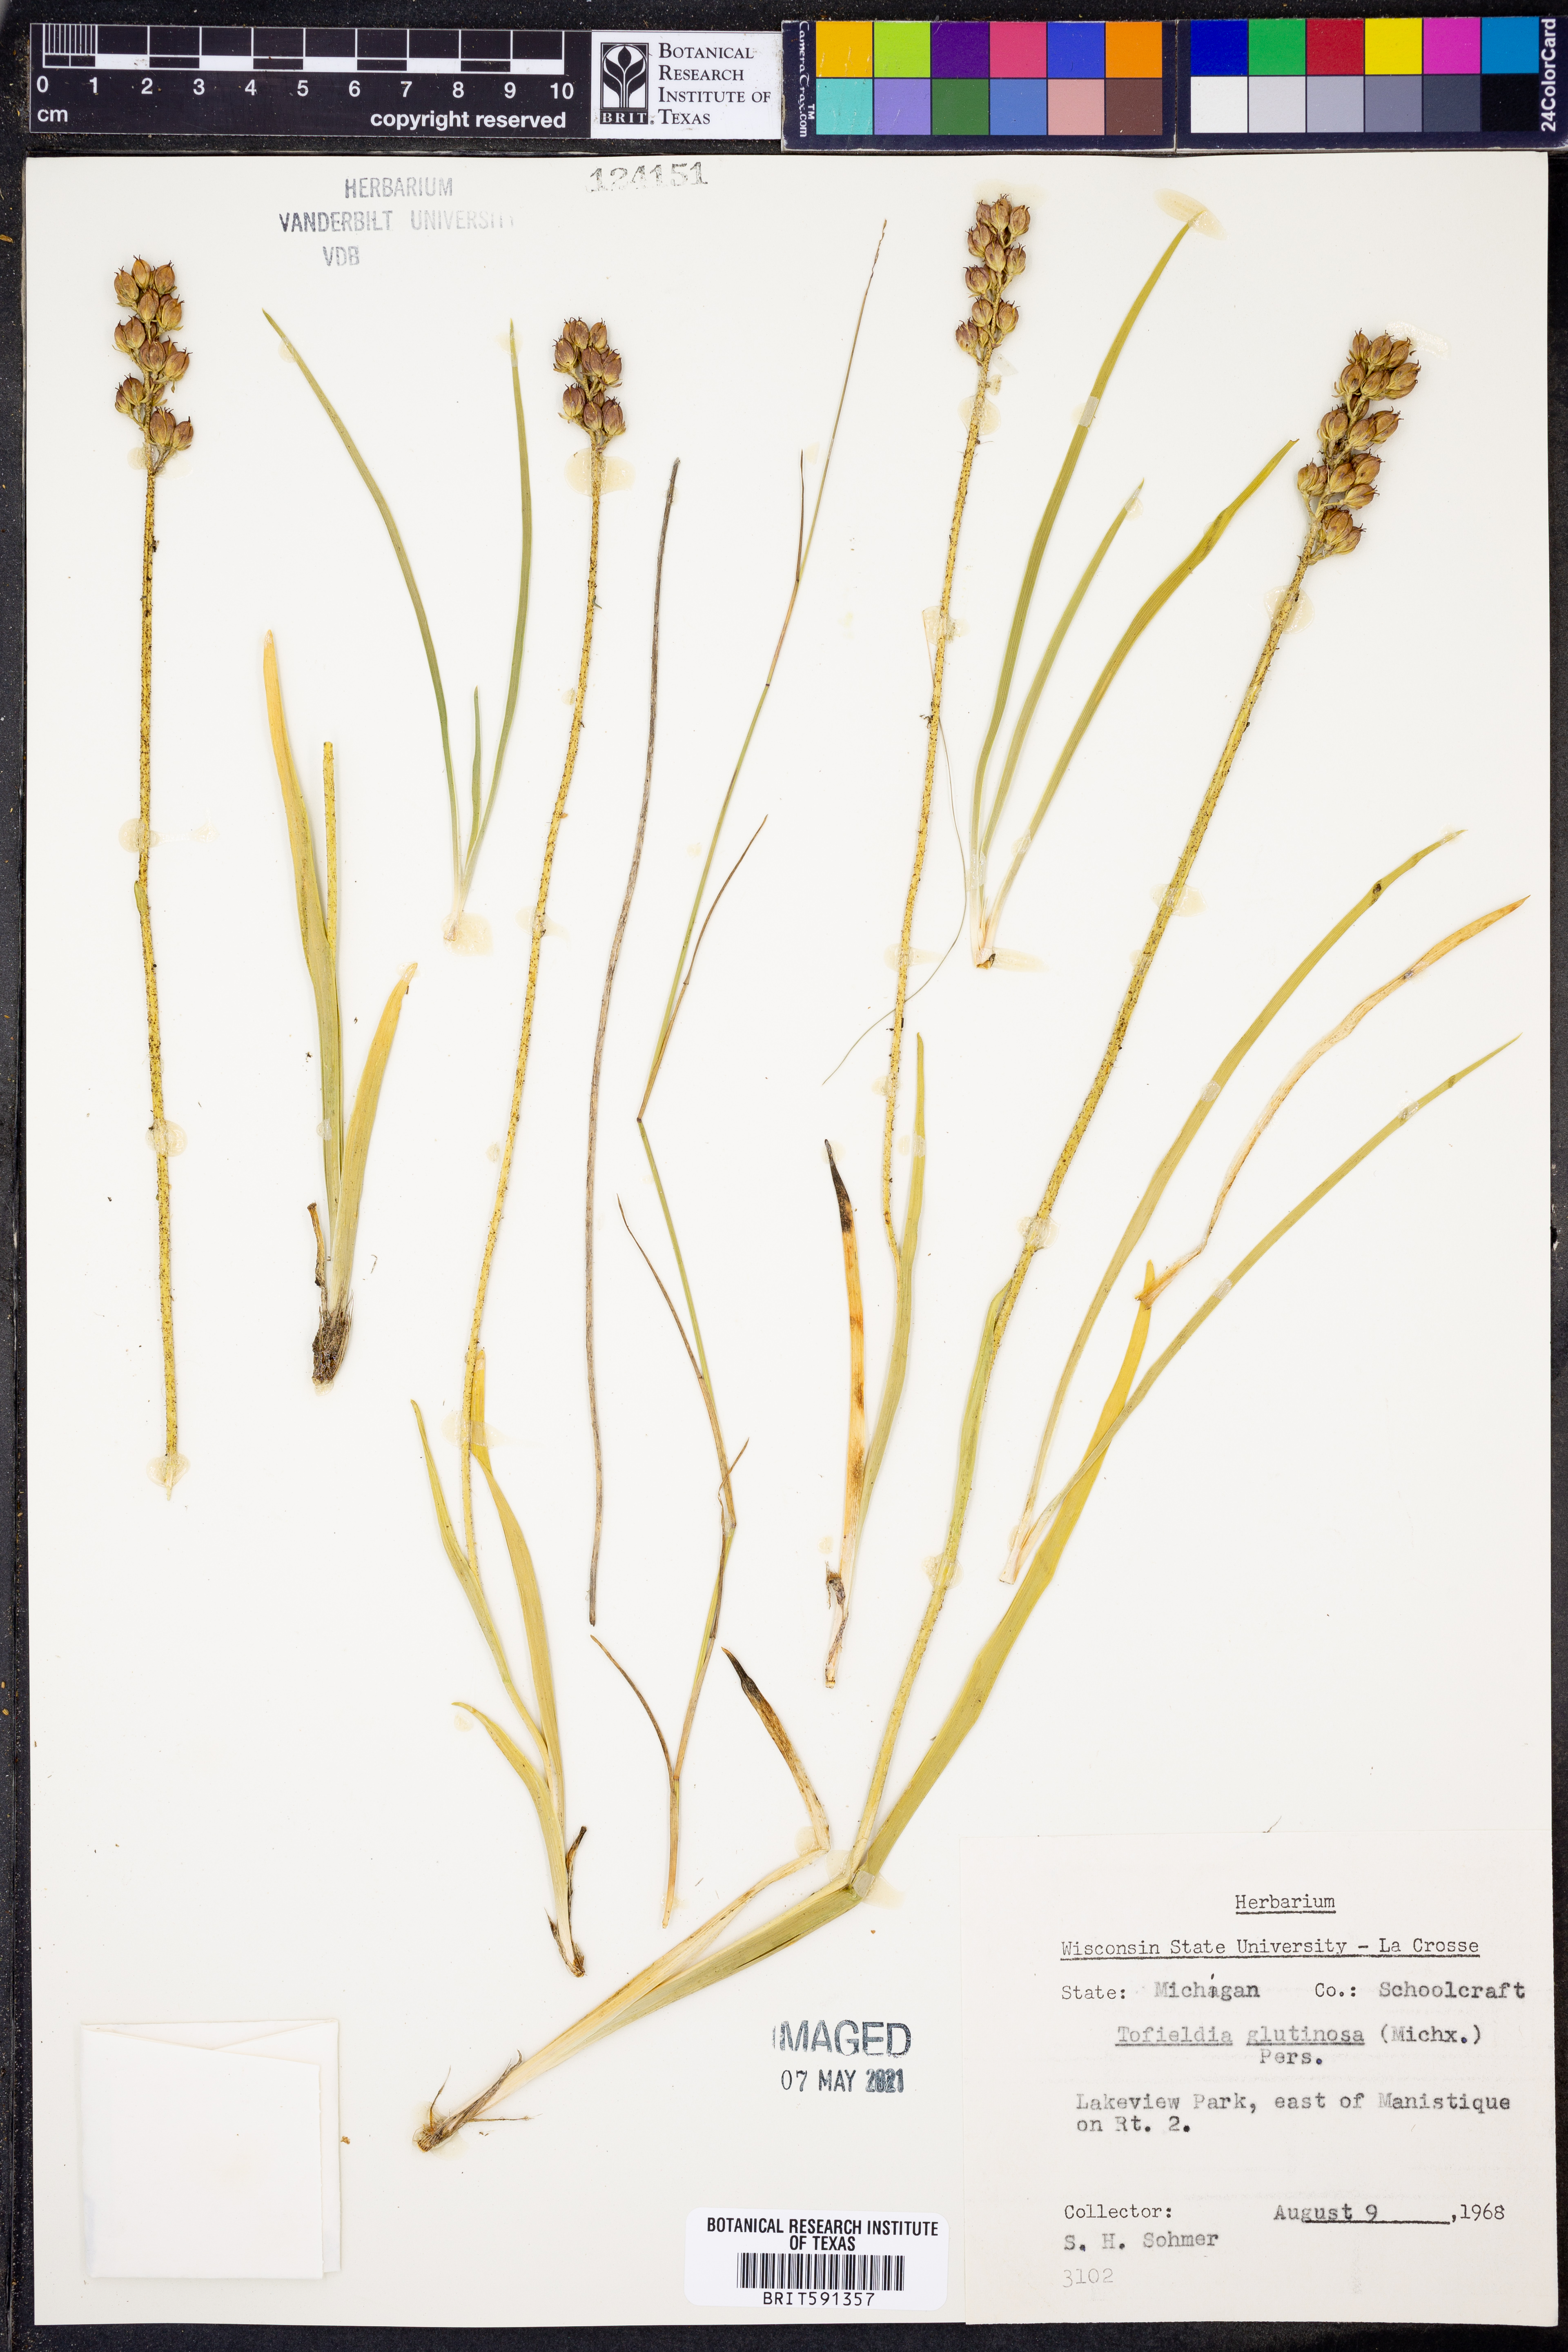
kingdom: Plantae
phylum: Tracheophyta
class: Liliopsida
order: Alismatales
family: Tofieldiaceae
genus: Triantha
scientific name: Triantha glutinosa
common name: Glutinous tofieldia
